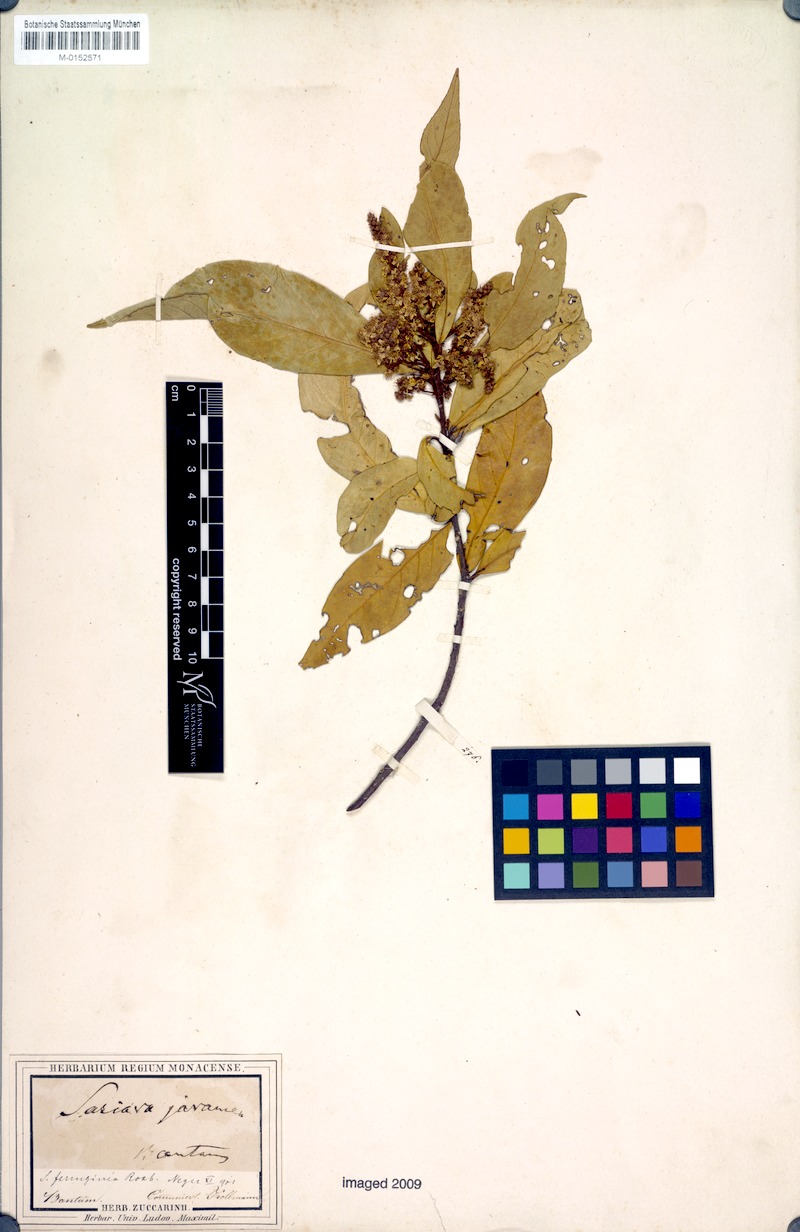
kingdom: Plantae
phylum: Tracheophyta
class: Magnoliopsida
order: Ericales
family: Symplocaceae
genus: Symplocos
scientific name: Symplocos cochinchinensis
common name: Buff hazelwood
